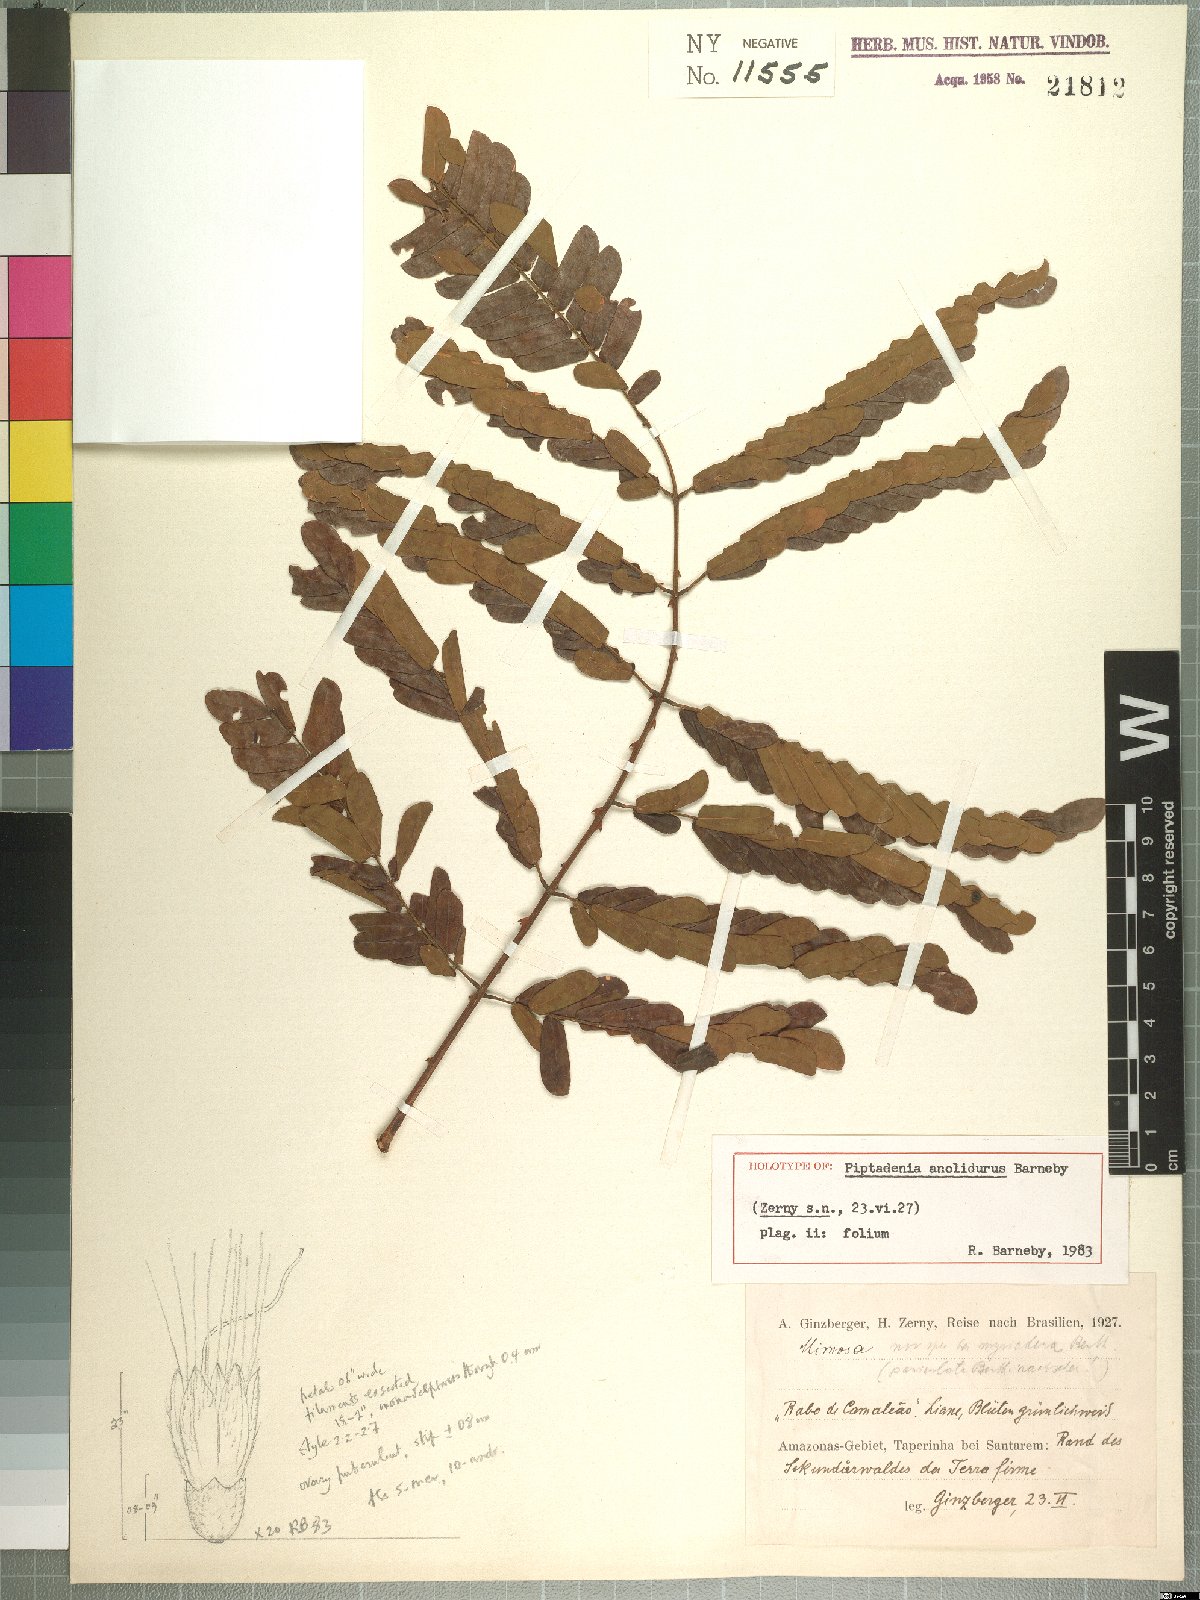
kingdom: Plantae
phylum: Tracheophyta
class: Magnoliopsida
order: Fabales
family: Fabaceae
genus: Piptadenia
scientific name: Piptadenia anolidurus
